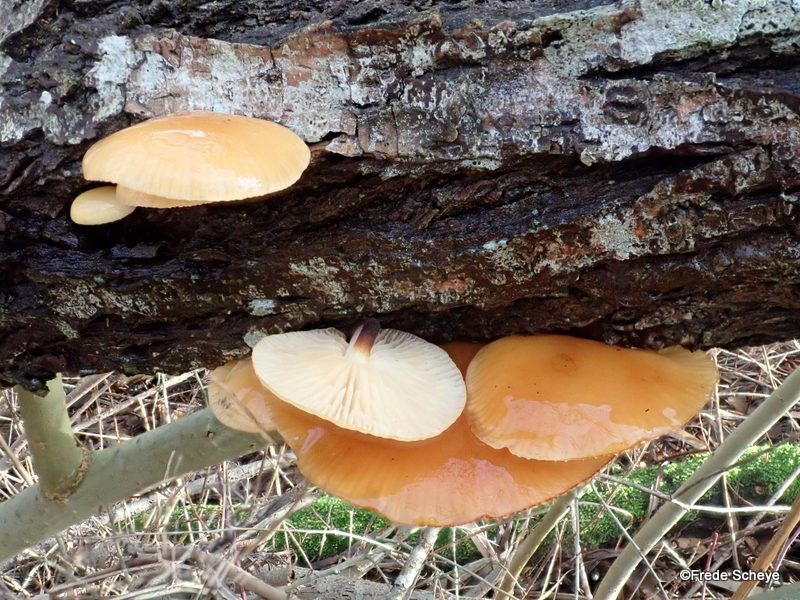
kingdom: Fungi
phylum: Basidiomycota
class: Agaricomycetes
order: Agaricales
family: Physalacriaceae
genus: Flammulina
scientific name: Flammulina elastica
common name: pile-fløjlsfod
